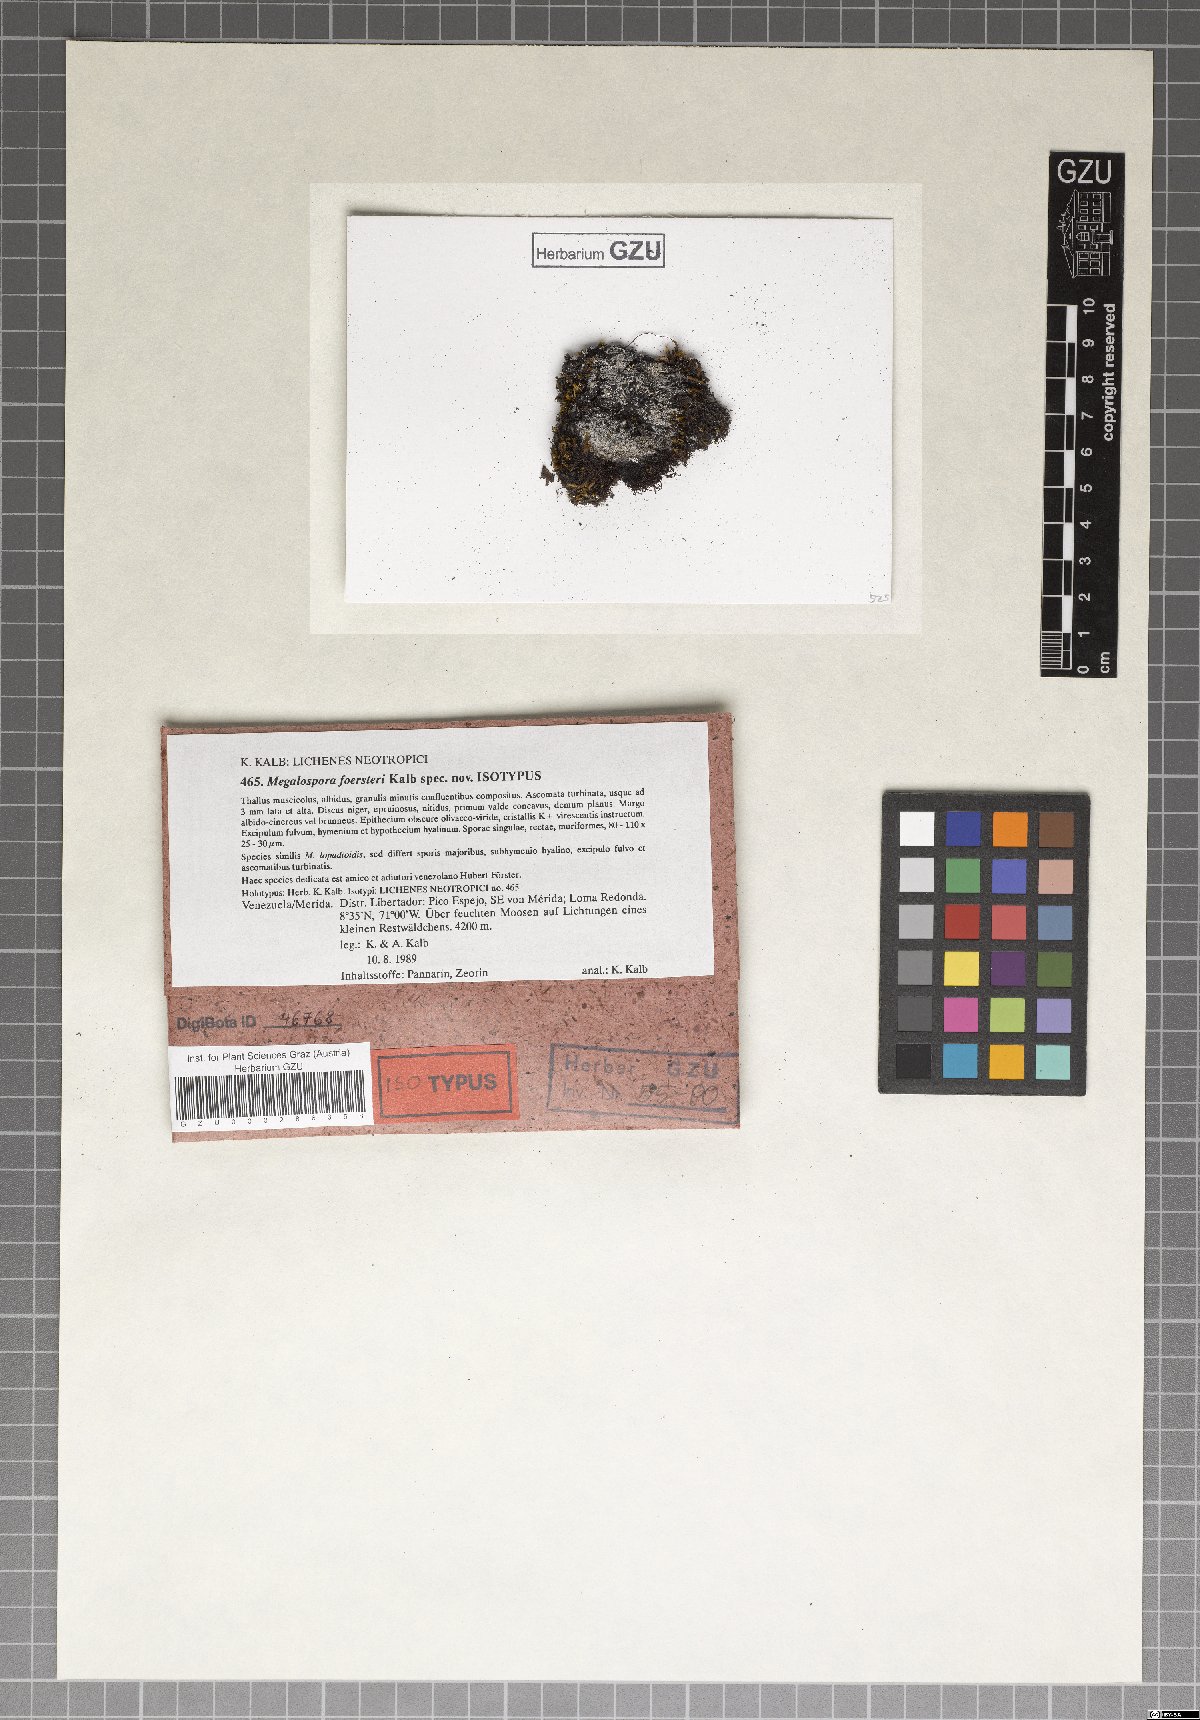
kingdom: Fungi
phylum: Ascomycota
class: Lecanoromycetes
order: Teloschistales
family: Megalosporaceae
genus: Megalospora
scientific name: Megalospora foersteri
